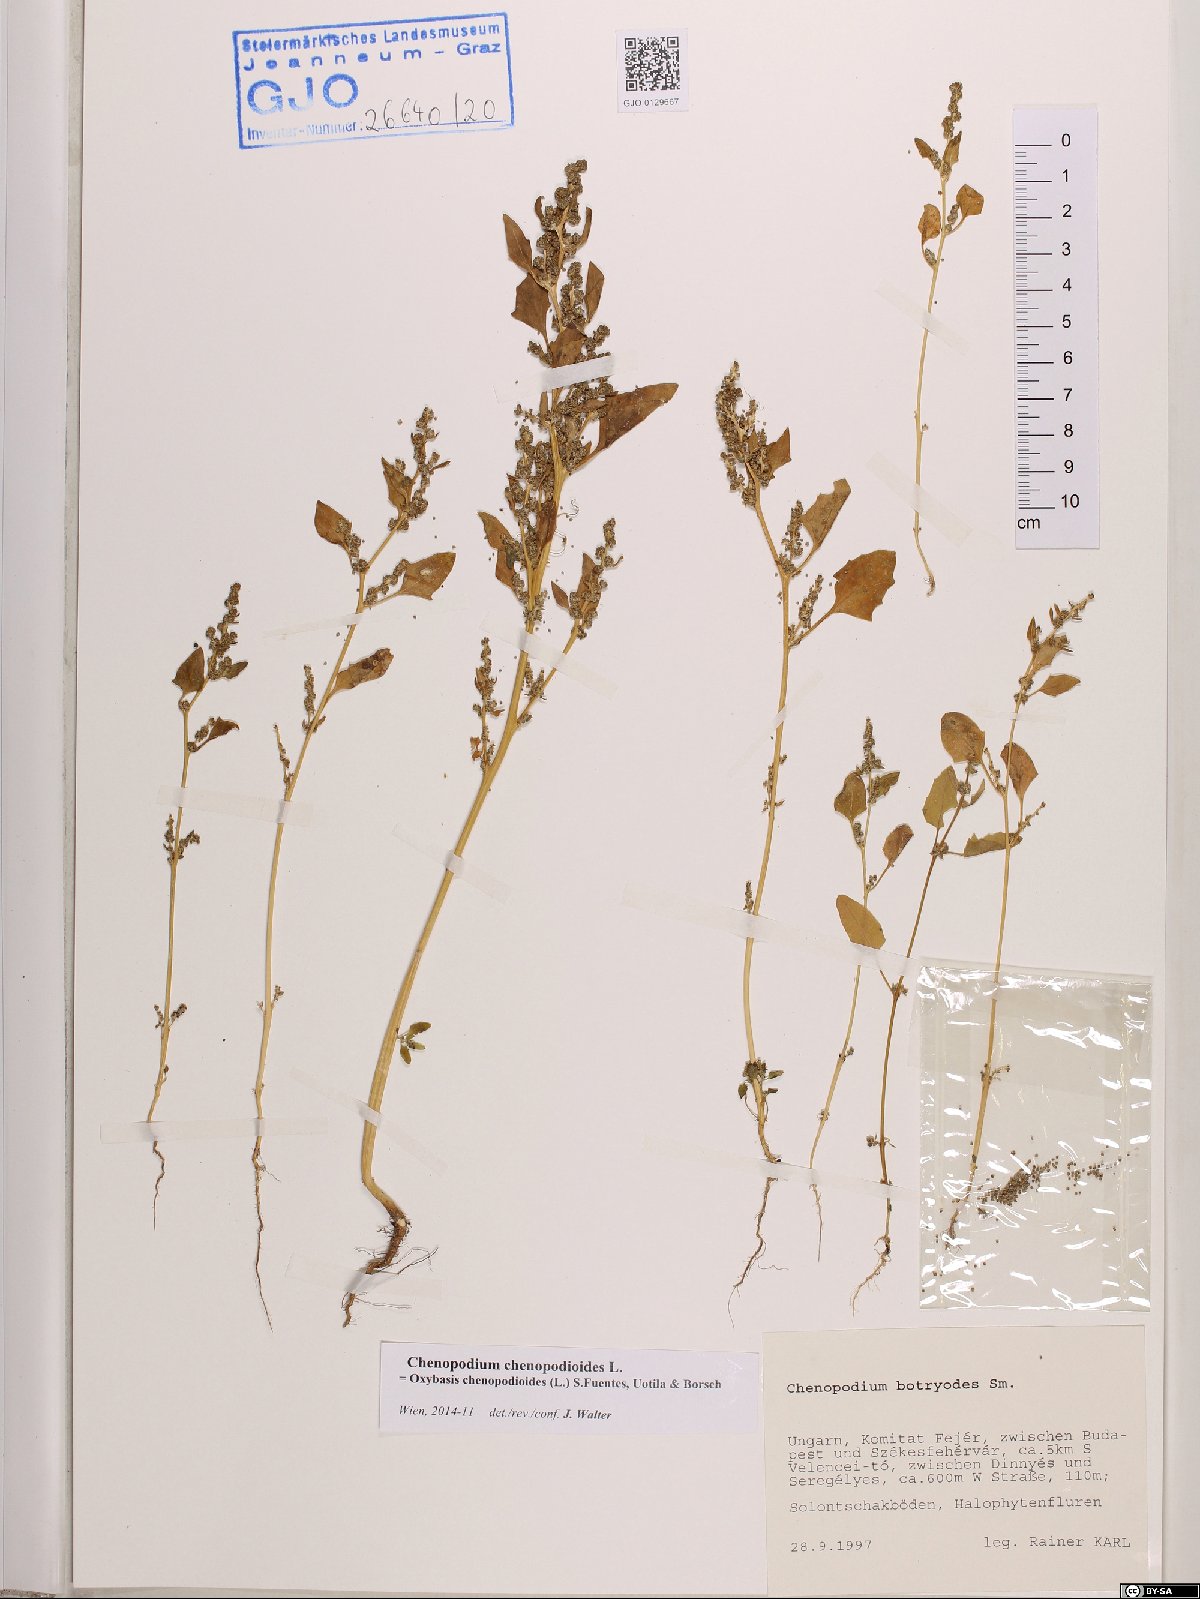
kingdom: Plantae
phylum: Tracheophyta
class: Magnoliopsida
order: Caryophyllales
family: Amaranthaceae
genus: Oxybasis
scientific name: Oxybasis chenopodioides
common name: Saltmarsh goosefoot
